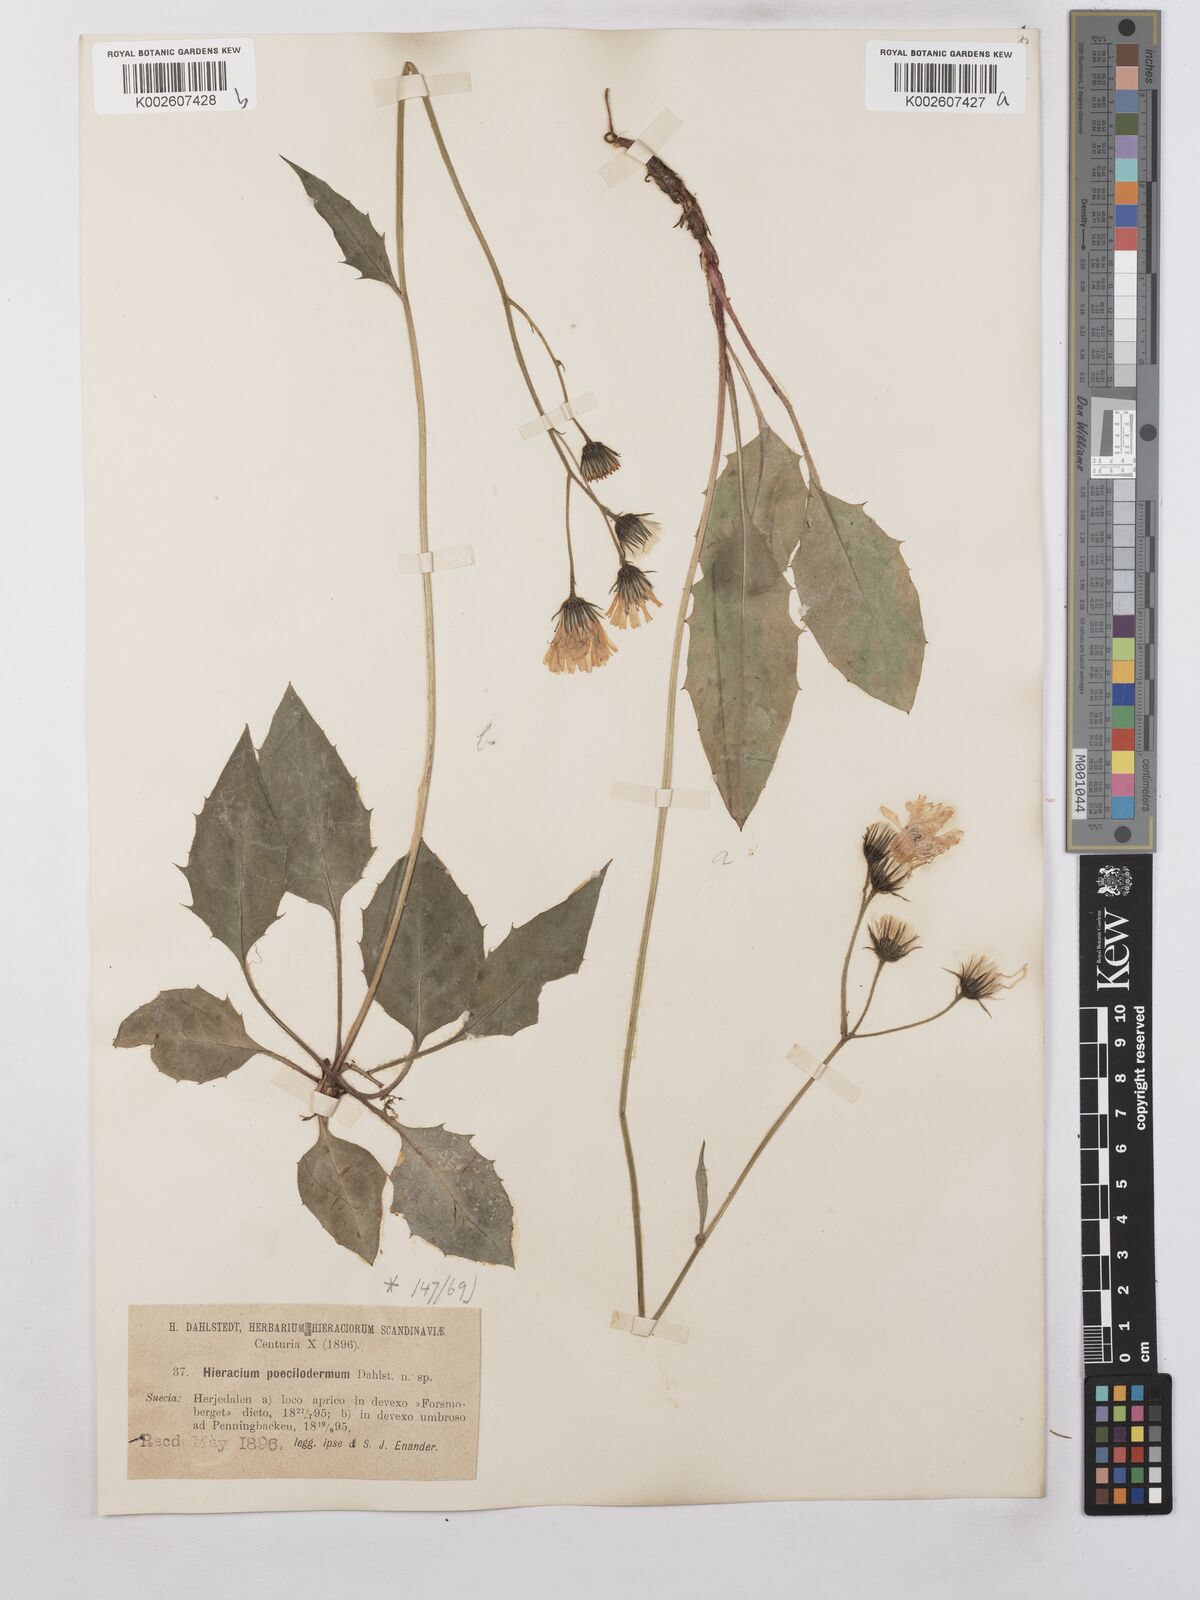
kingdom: Plantae
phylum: Tracheophyta
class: Magnoliopsida
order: Asterales
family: Asteraceae
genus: Hieracium
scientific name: Hieracium poecilodermum
